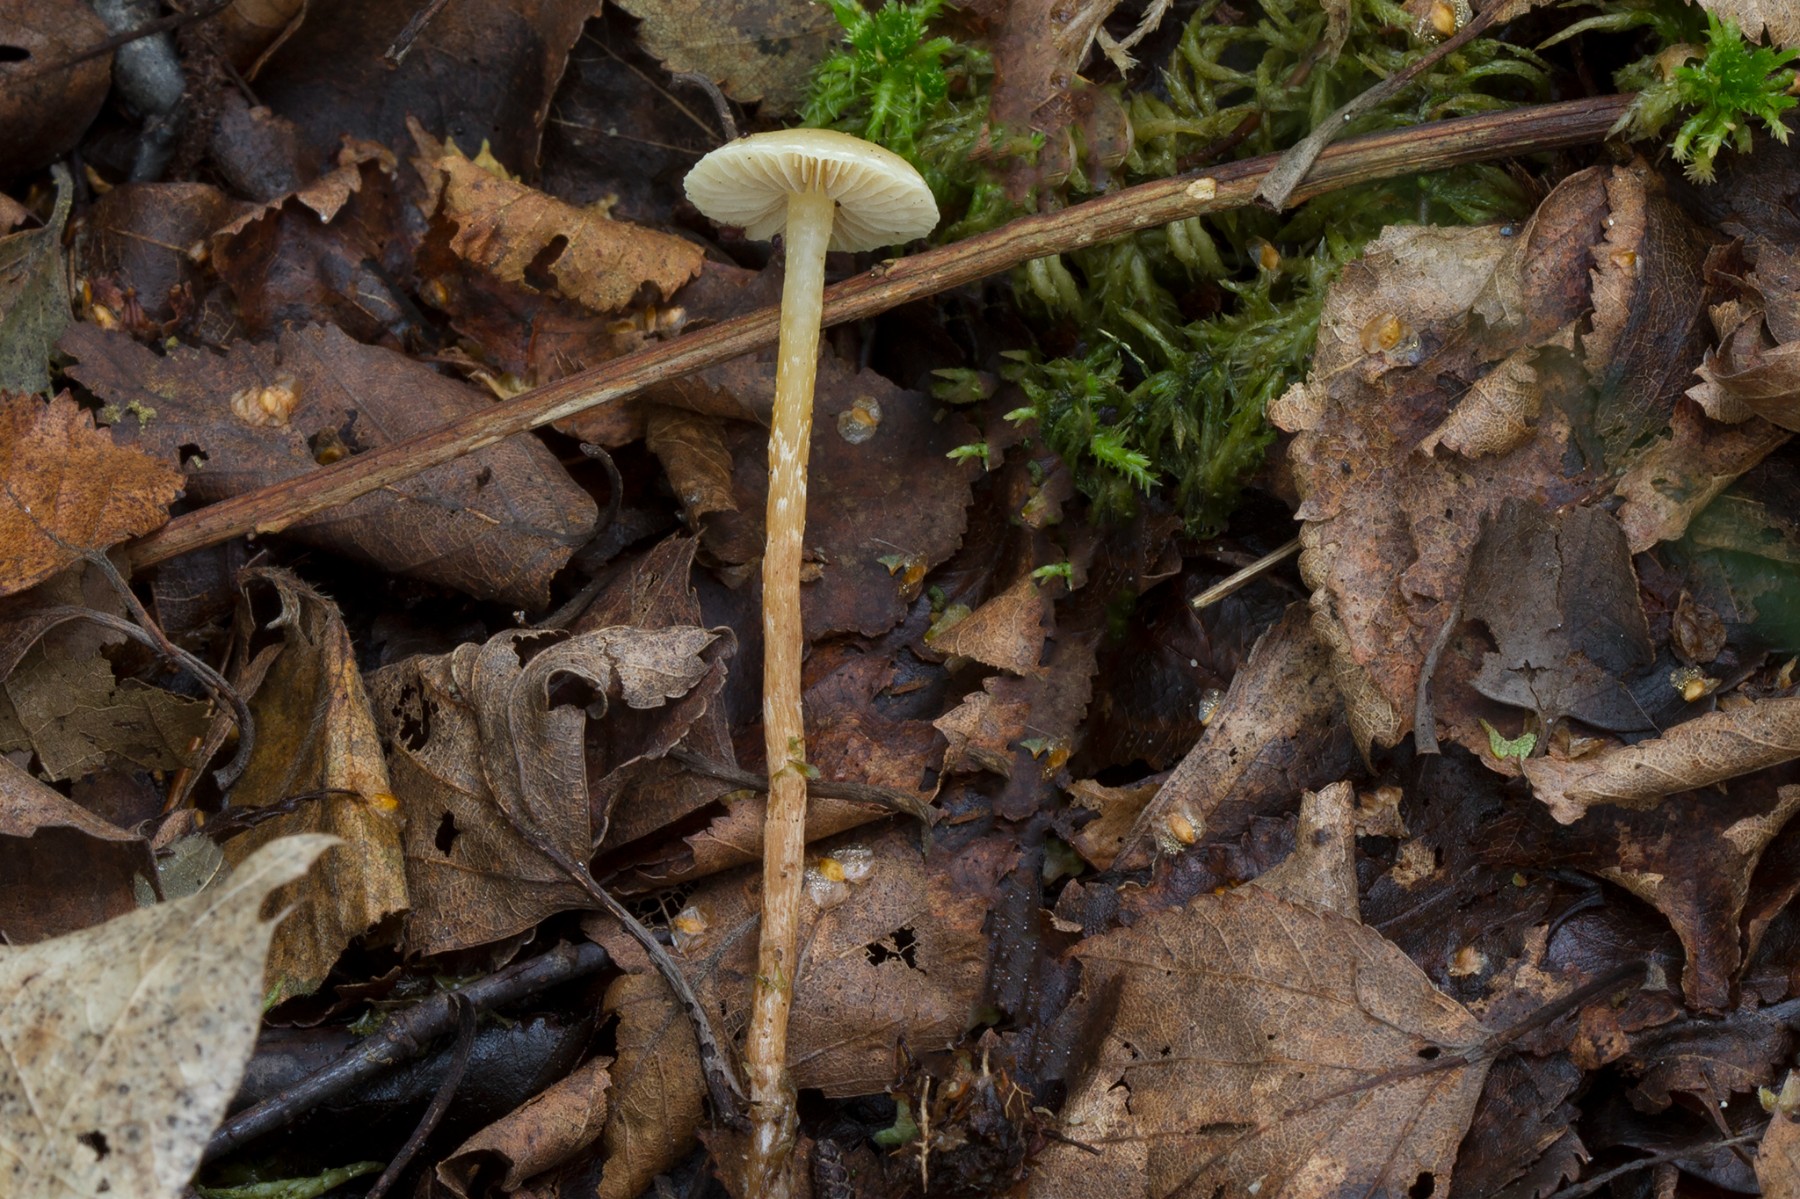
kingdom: Fungi
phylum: Basidiomycota
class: Agaricomycetes
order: Agaricales
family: Strophariaceae
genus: Hypholoma
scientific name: Hypholoma elongatum
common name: slank svovlhat
